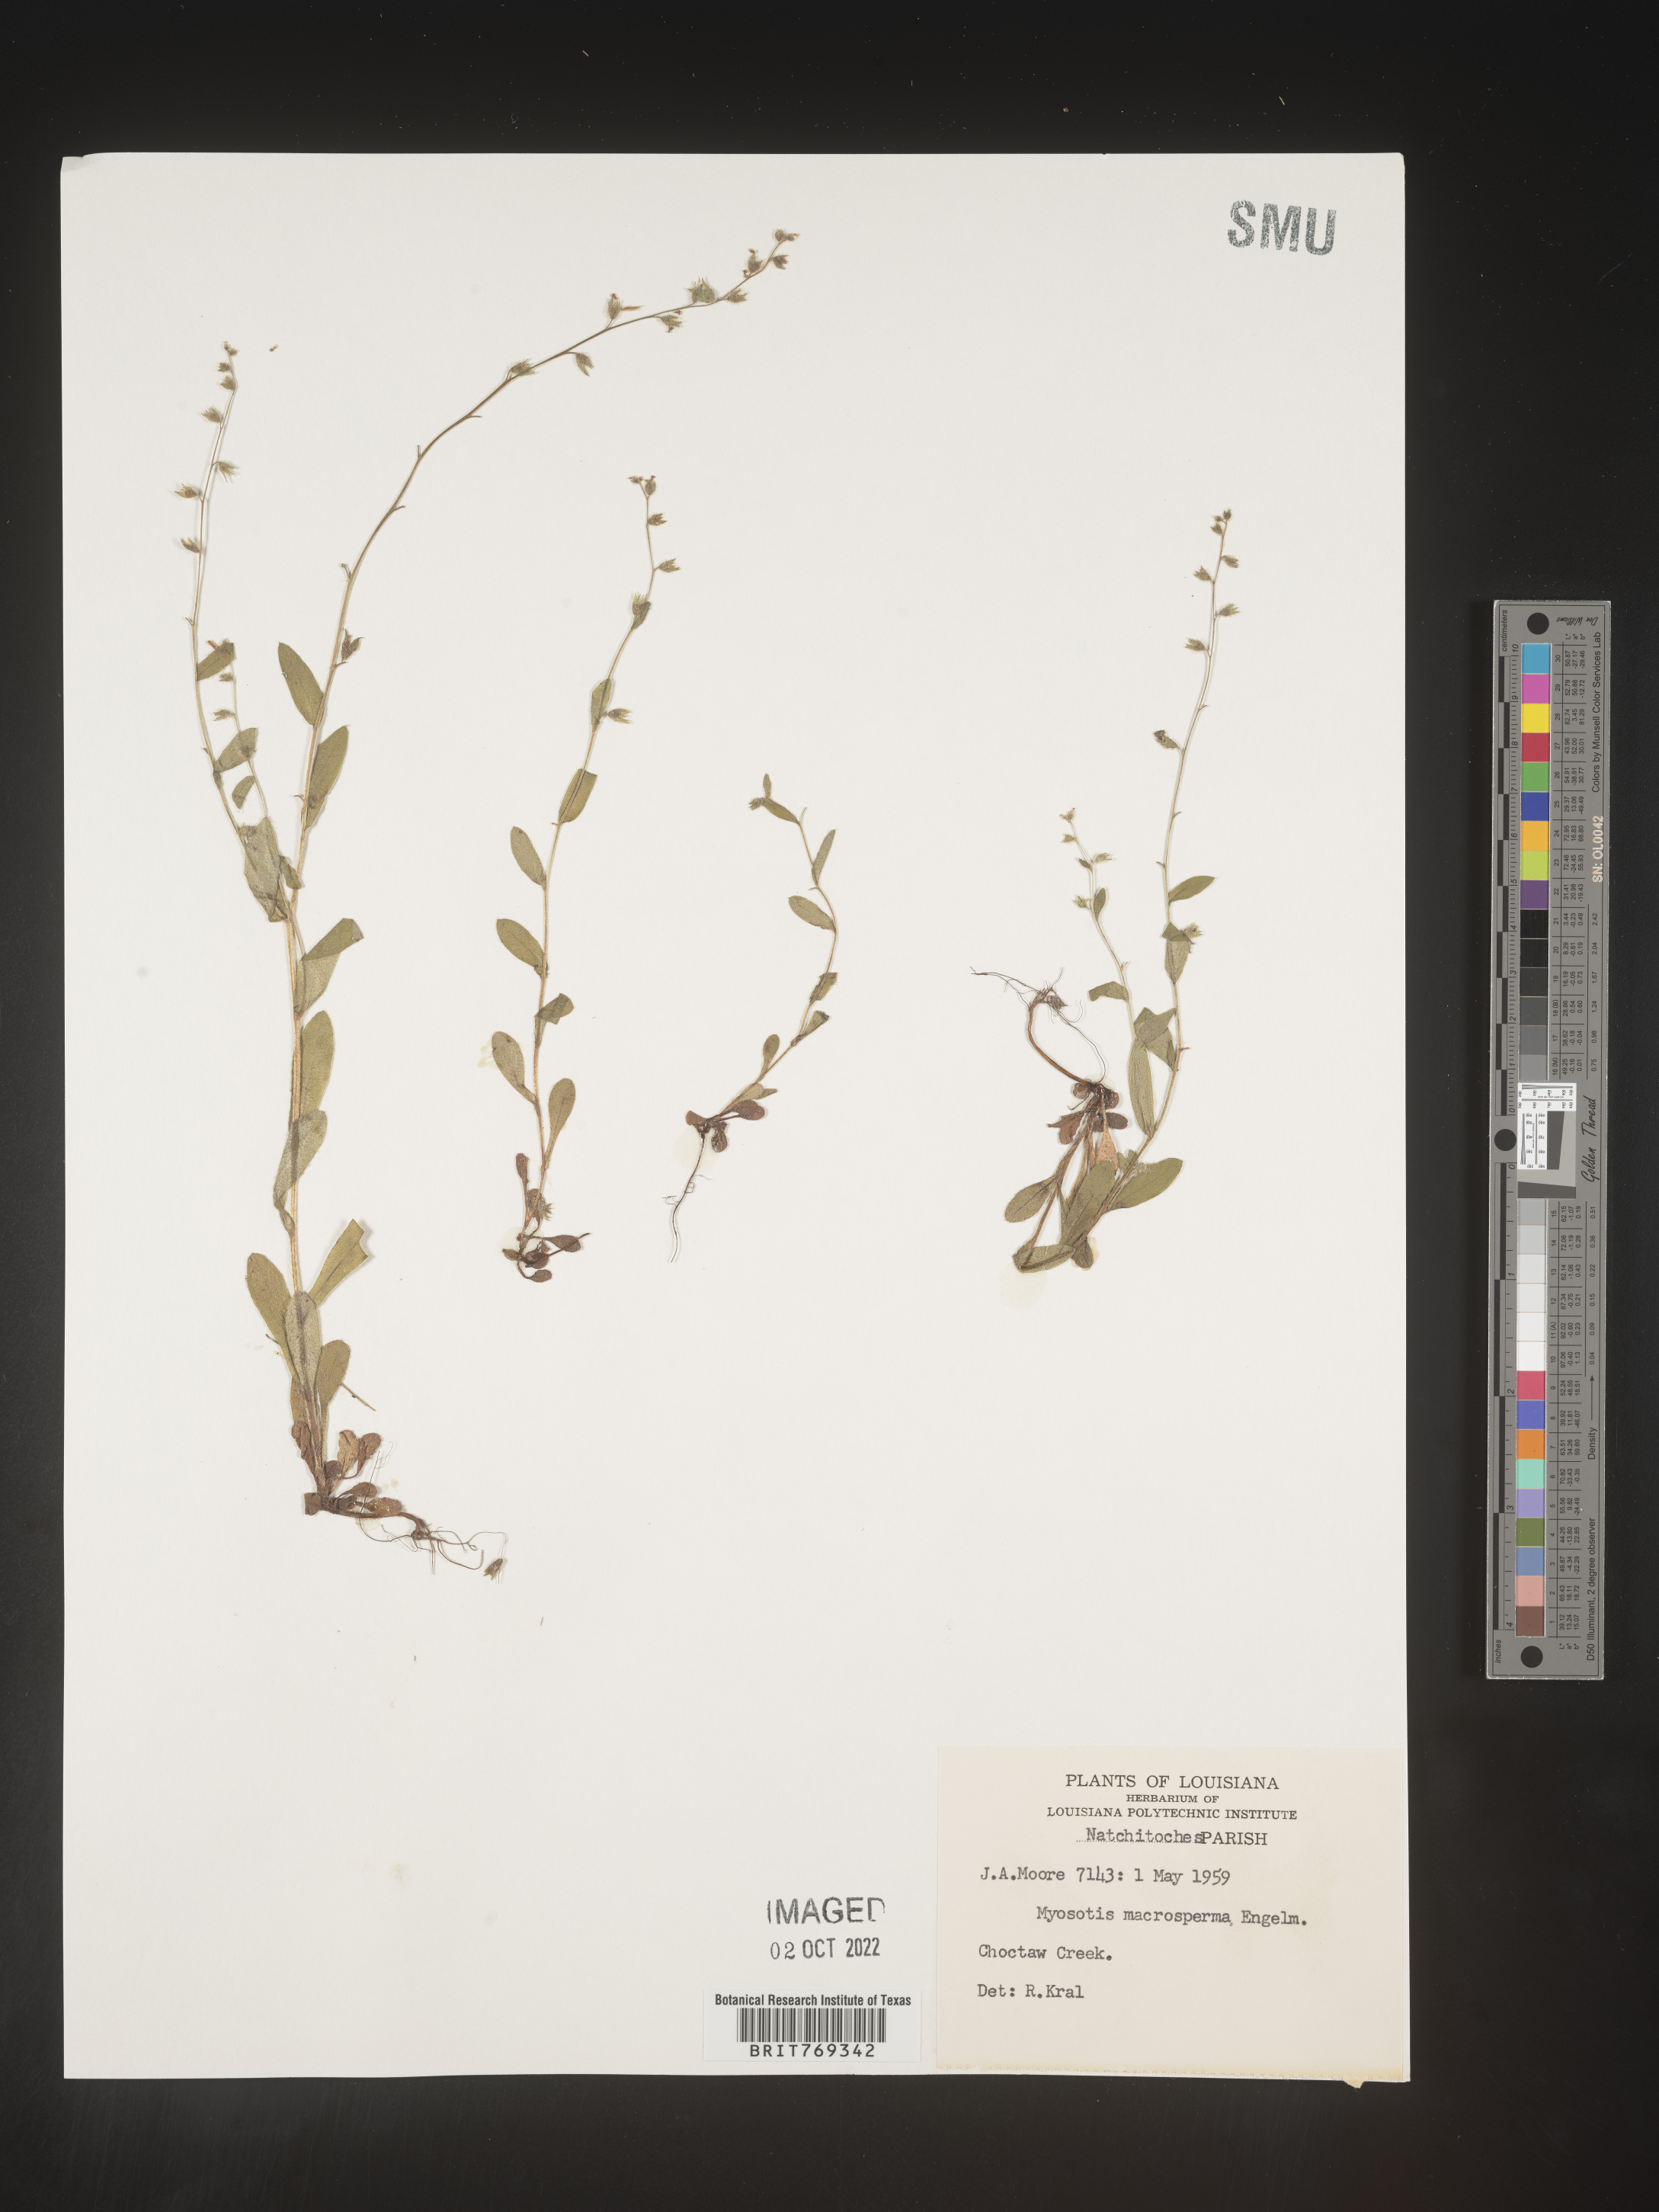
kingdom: Plantae
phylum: Tracheophyta
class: Magnoliopsida
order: Boraginales
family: Boraginaceae
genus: Myosotis
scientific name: Myosotis macrosperma
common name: Large-seed forget-me-not
